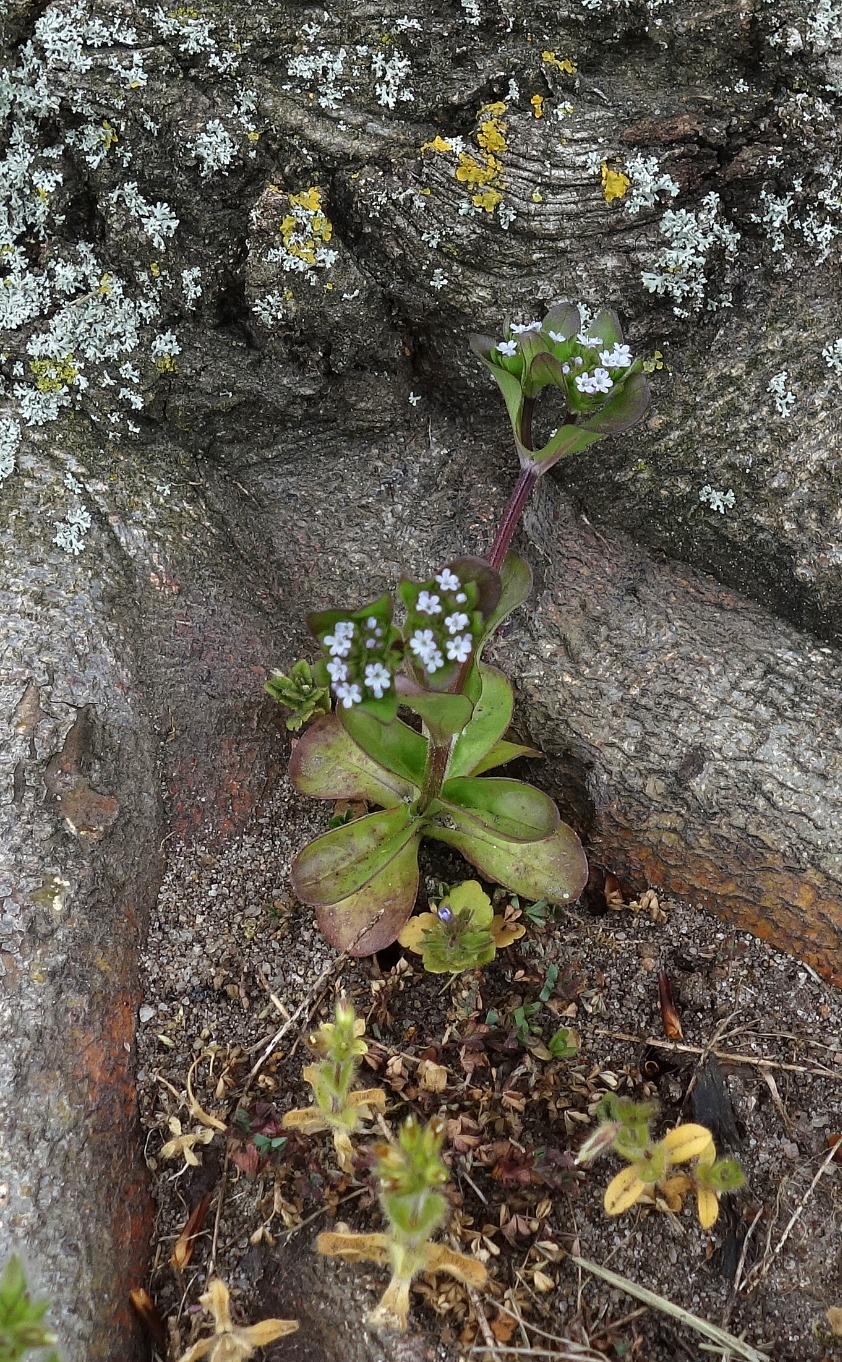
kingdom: Plantae
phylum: Tracheophyta
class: Magnoliopsida
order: Dipsacales
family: Caprifoliaceae
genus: Valerianella
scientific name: Valerianella locusta
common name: Tandfri vårsalat
